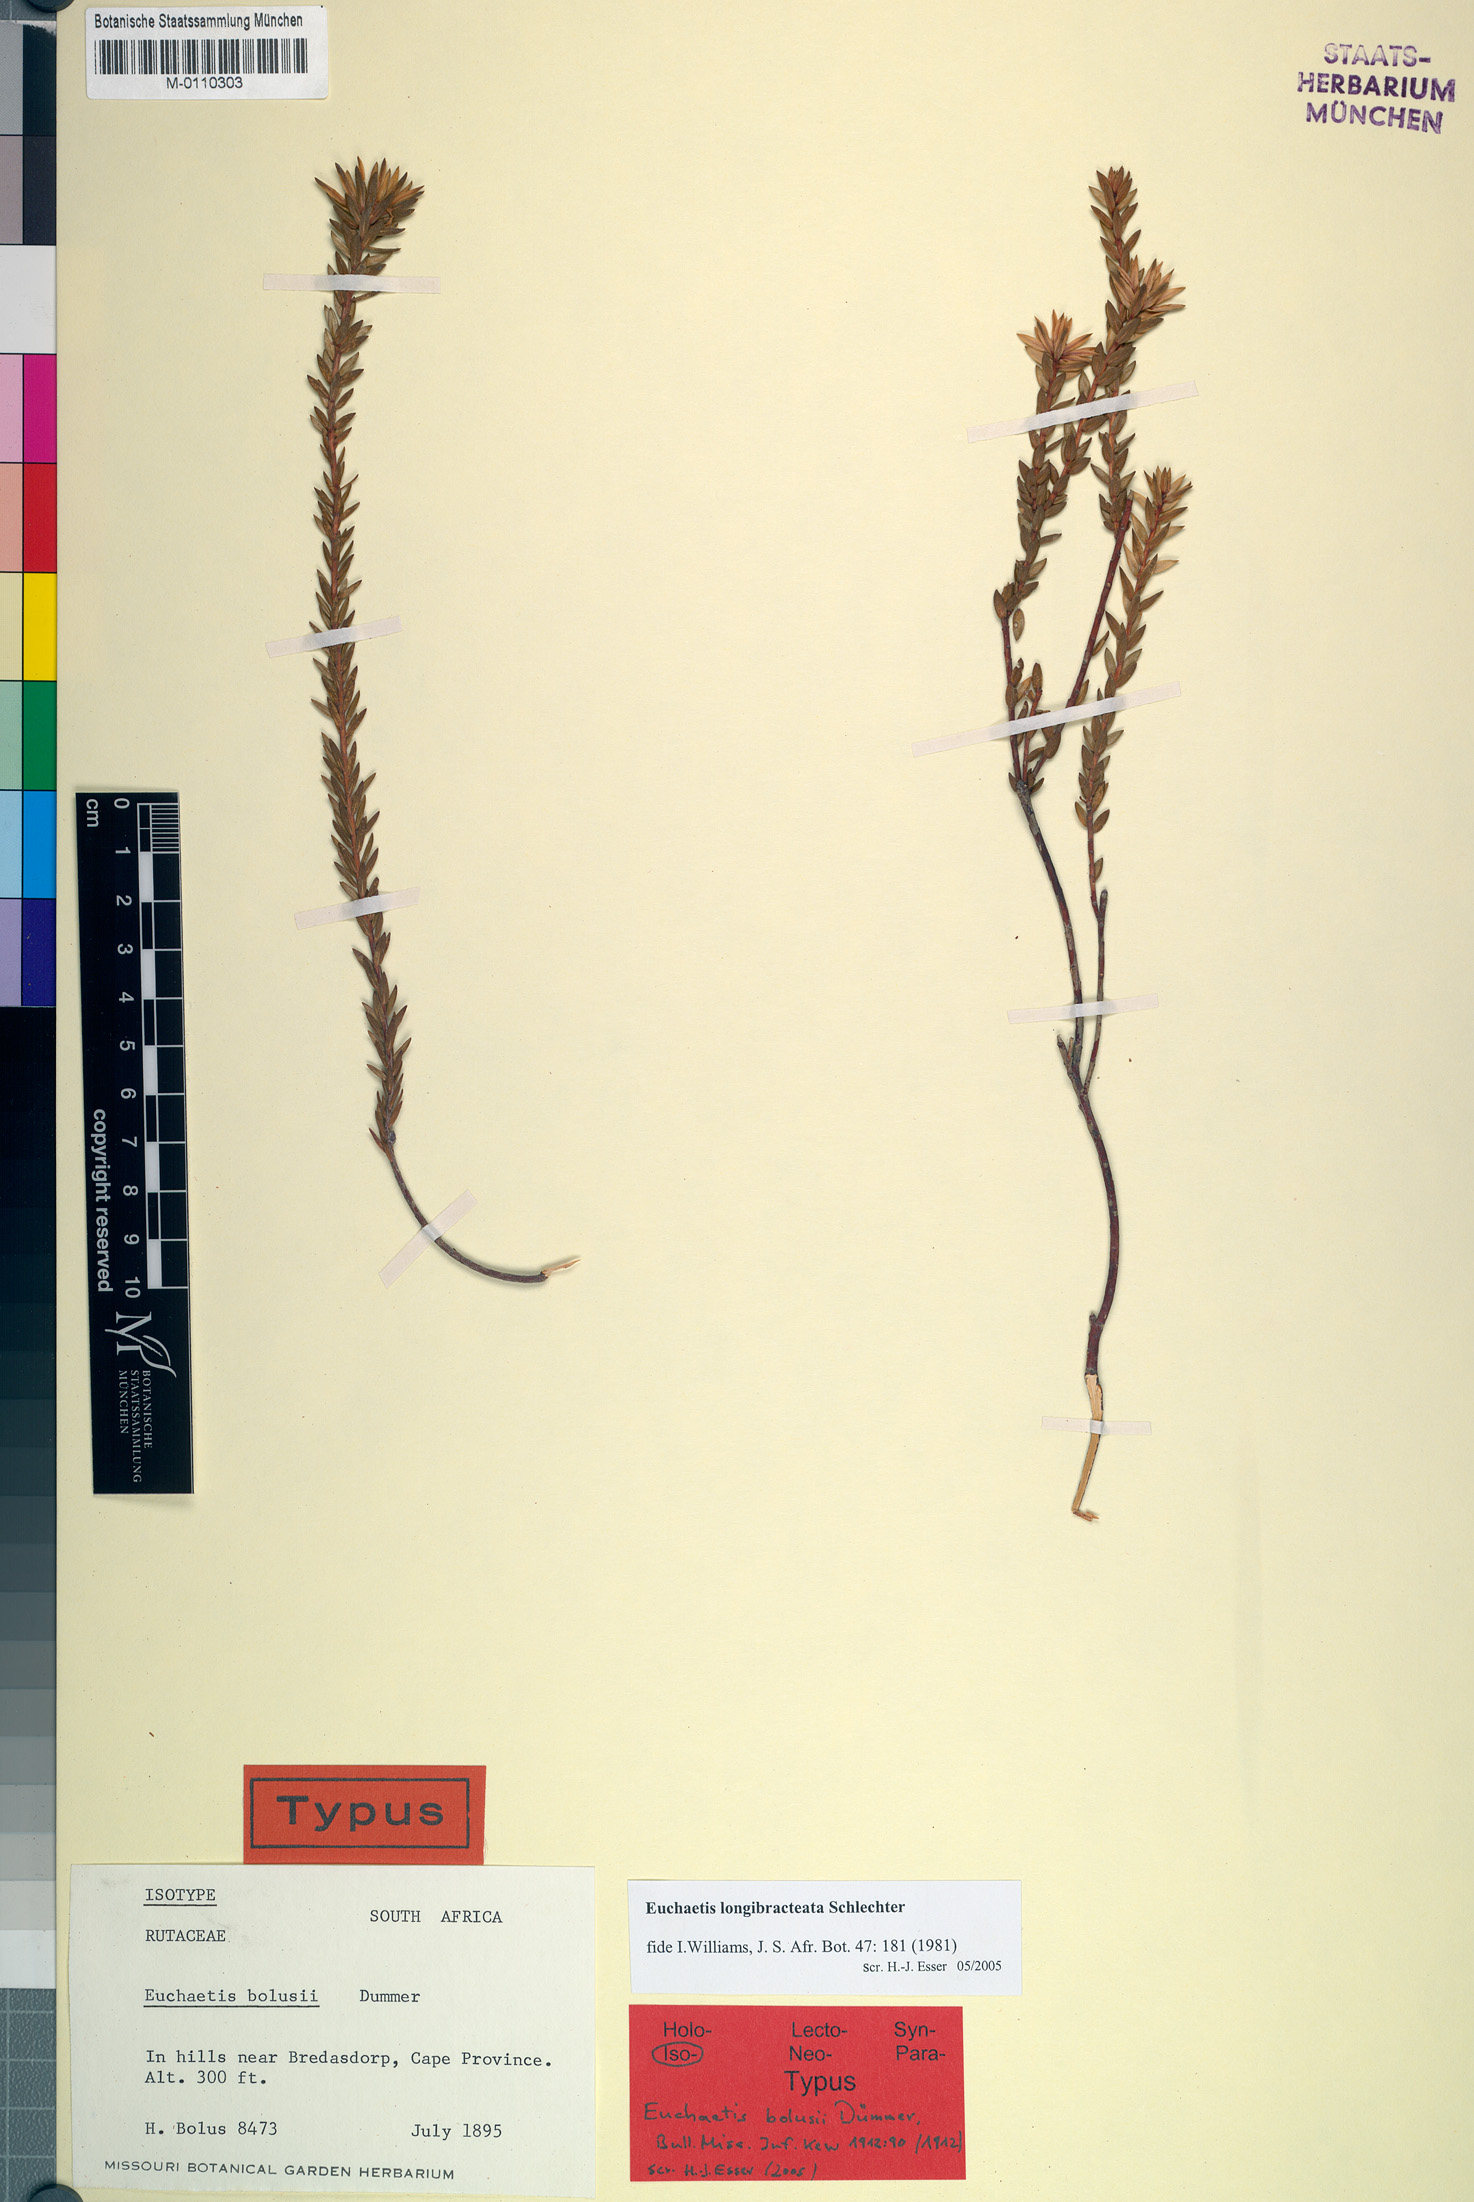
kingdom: Plantae
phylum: Tracheophyta
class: Magnoliopsida
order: Sapindales
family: Rutaceae
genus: Euchaetis
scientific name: Euchaetis longibracteata
